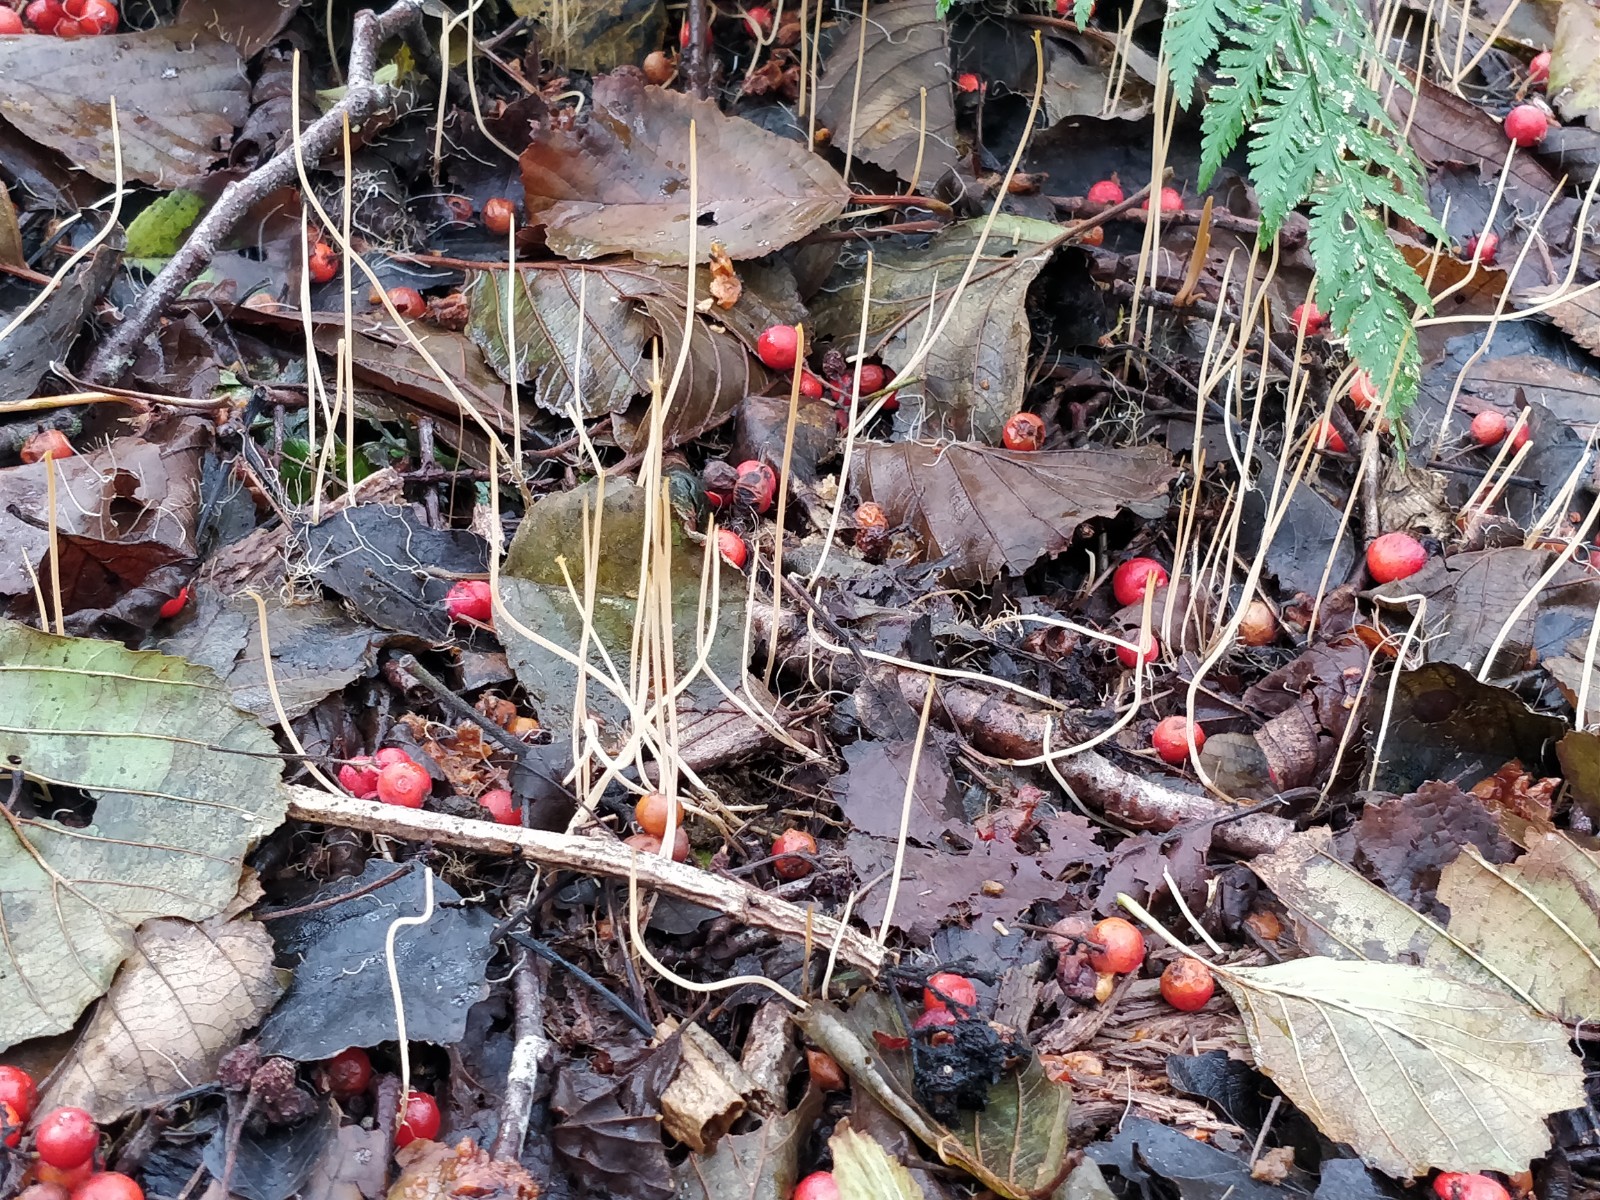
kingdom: Fungi
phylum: Basidiomycota
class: Agaricomycetes
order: Agaricales
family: Typhulaceae
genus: Typhula
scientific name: Typhula juncea
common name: trådagtig rørkølle
